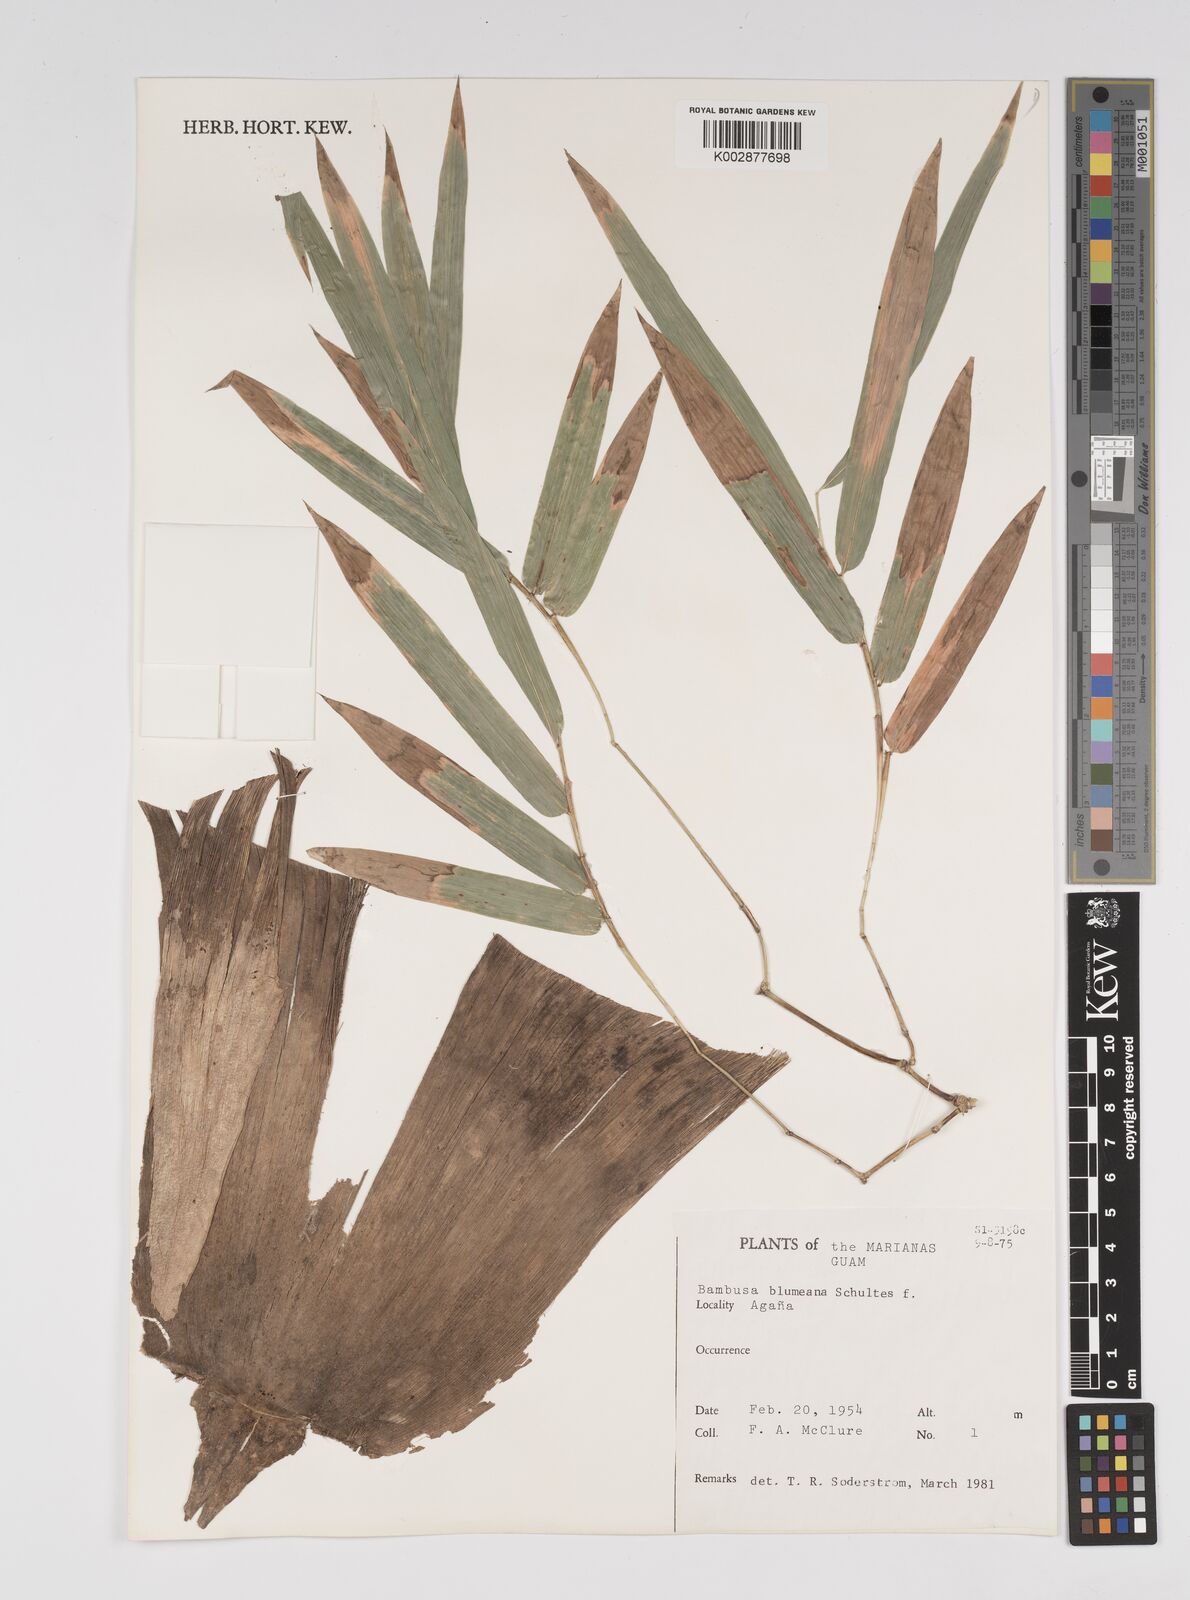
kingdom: Plantae
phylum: Tracheophyta
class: Liliopsida
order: Poales
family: Poaceae
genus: Bambusa
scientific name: Bambusa spinosa
